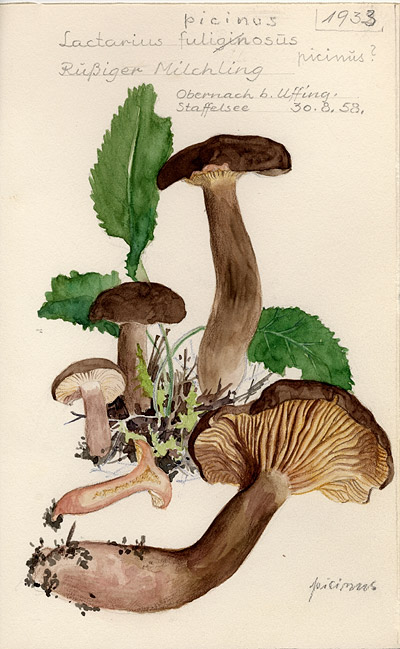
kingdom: Fungi
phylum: Basidiomycota
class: Agaricomycetes
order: Russulales
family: Russulaceae
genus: Lactarius
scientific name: Lactarius picinus
